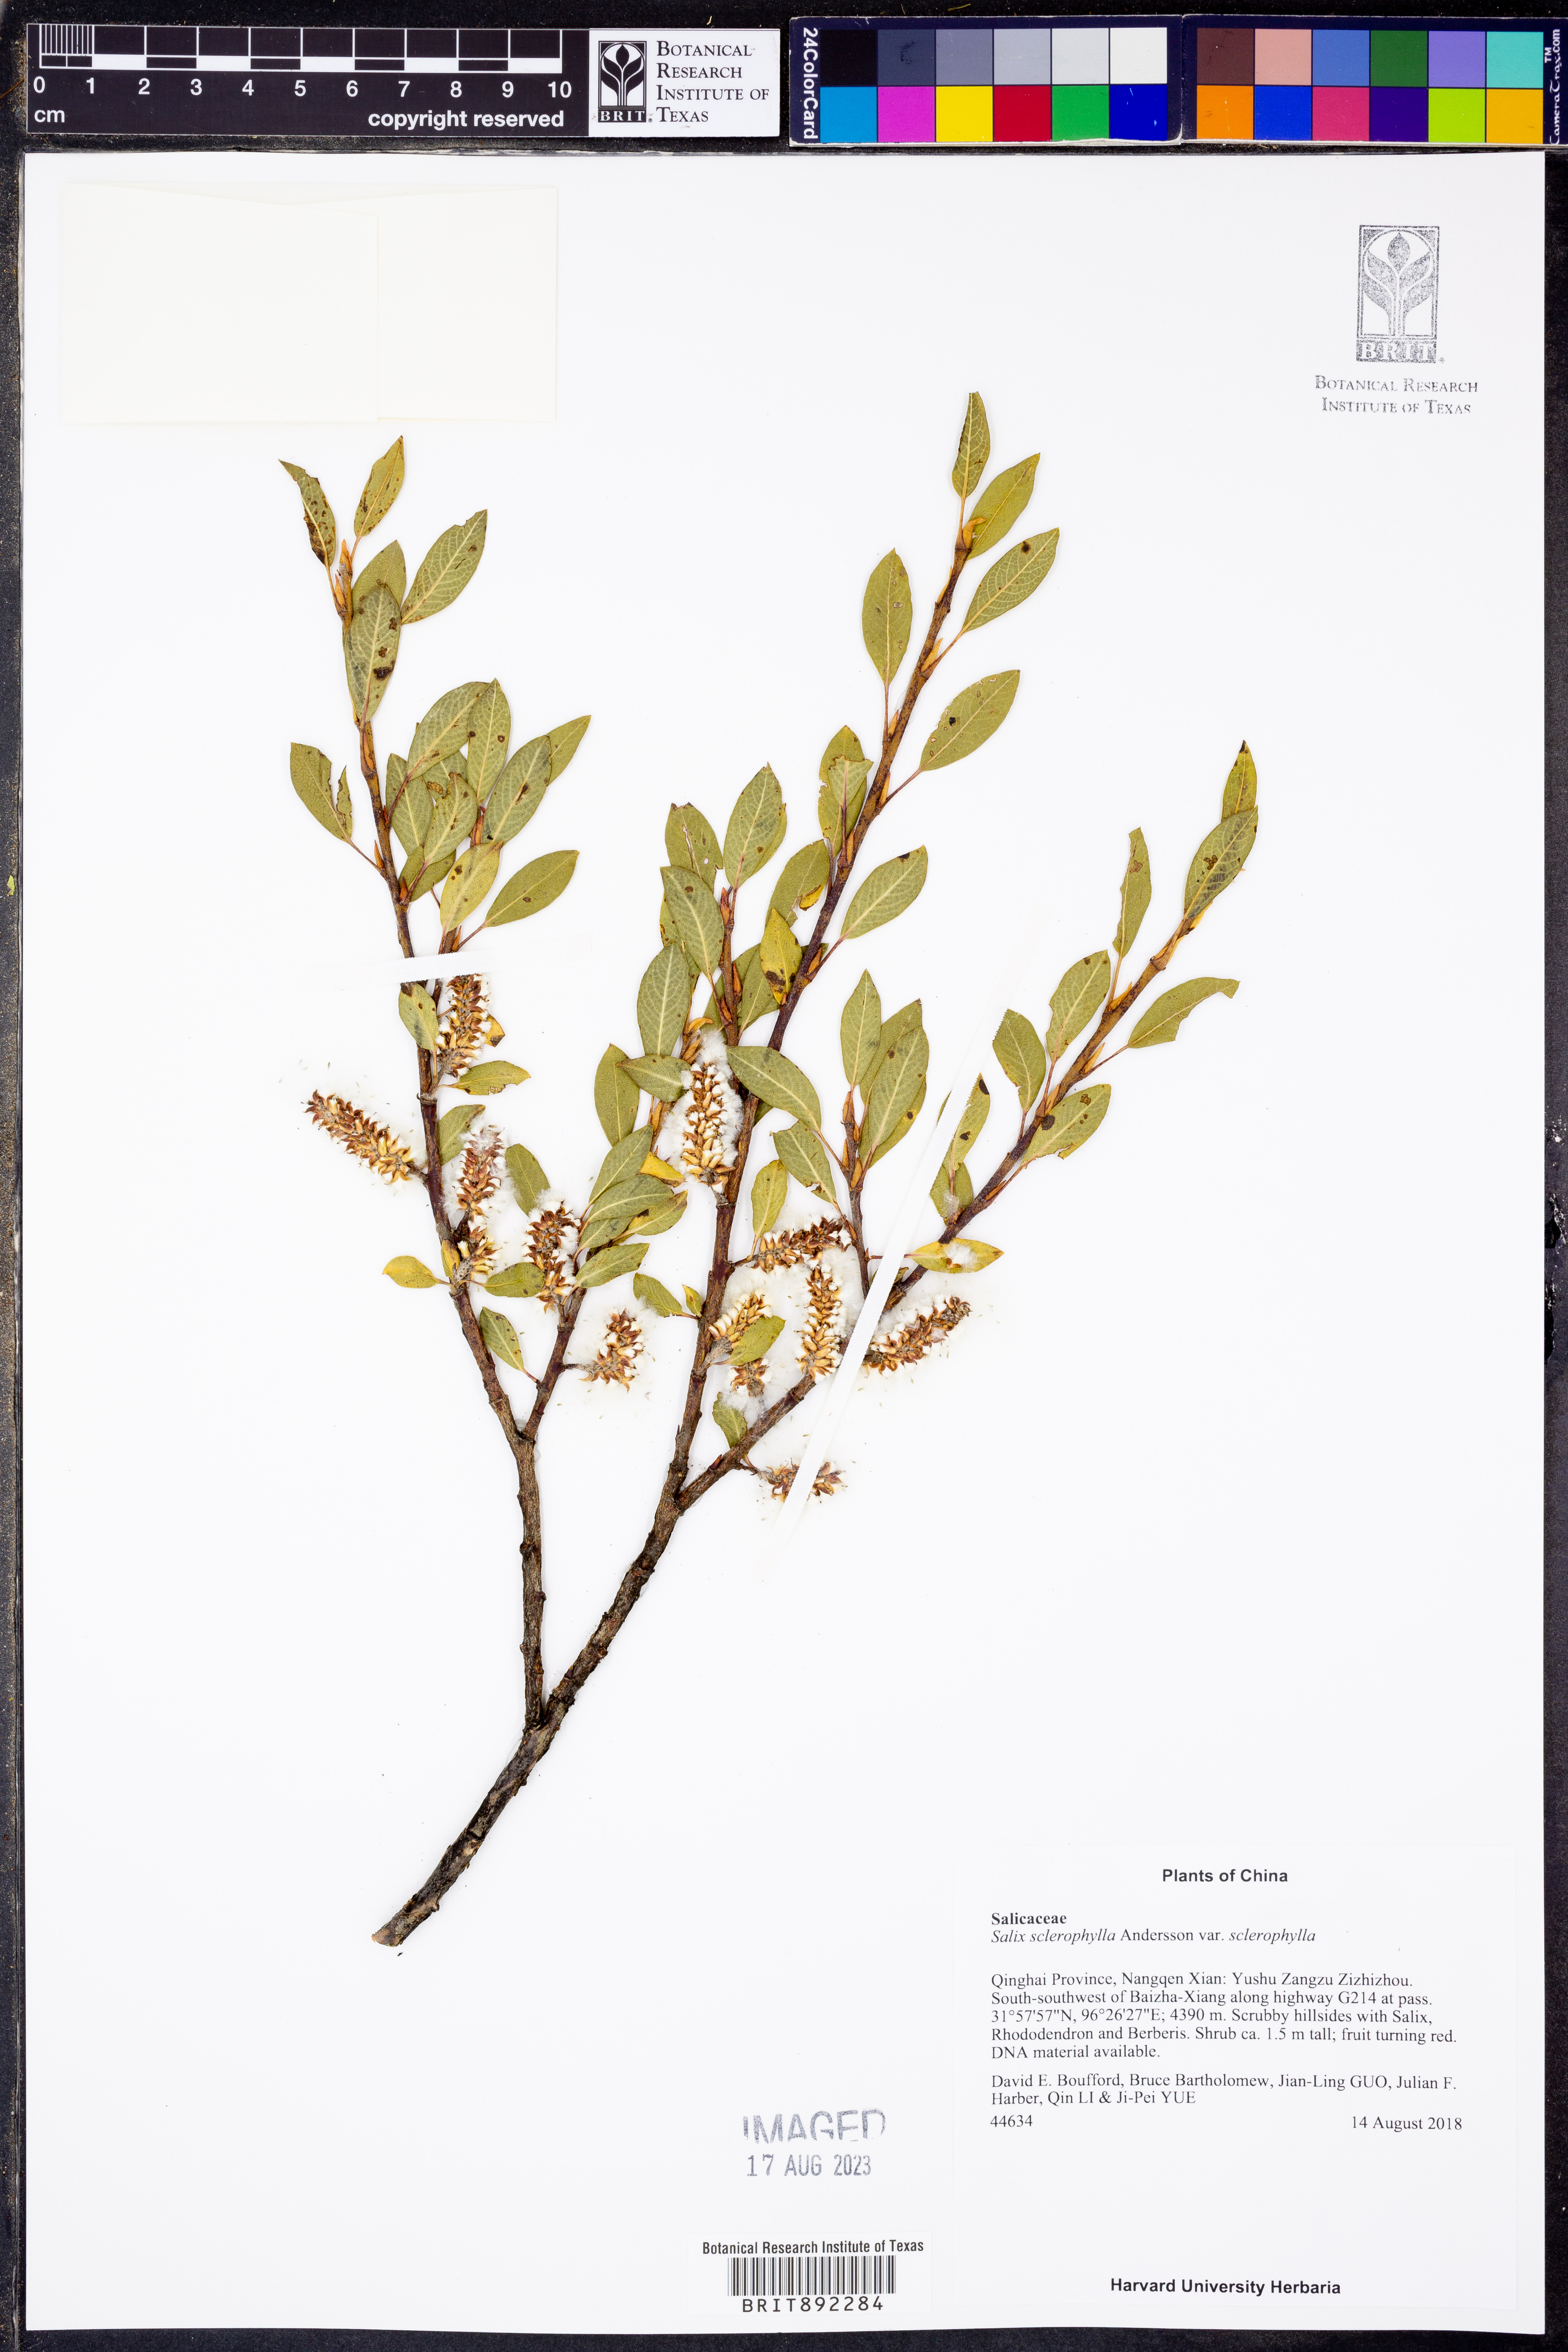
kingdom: Plantae
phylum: Tracheophyta
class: Magnoliopsida
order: Malpighiales
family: Salicaceae
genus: Salix
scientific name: Salix sclerophylla
